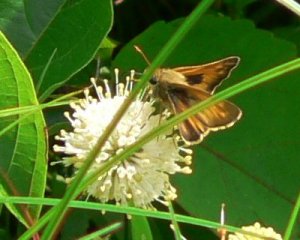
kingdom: Animalia
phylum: Arthropoda
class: Insecta
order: Lepidoptera
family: Hesperiidae
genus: Atalopedes
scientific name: Atalopedes campestris
